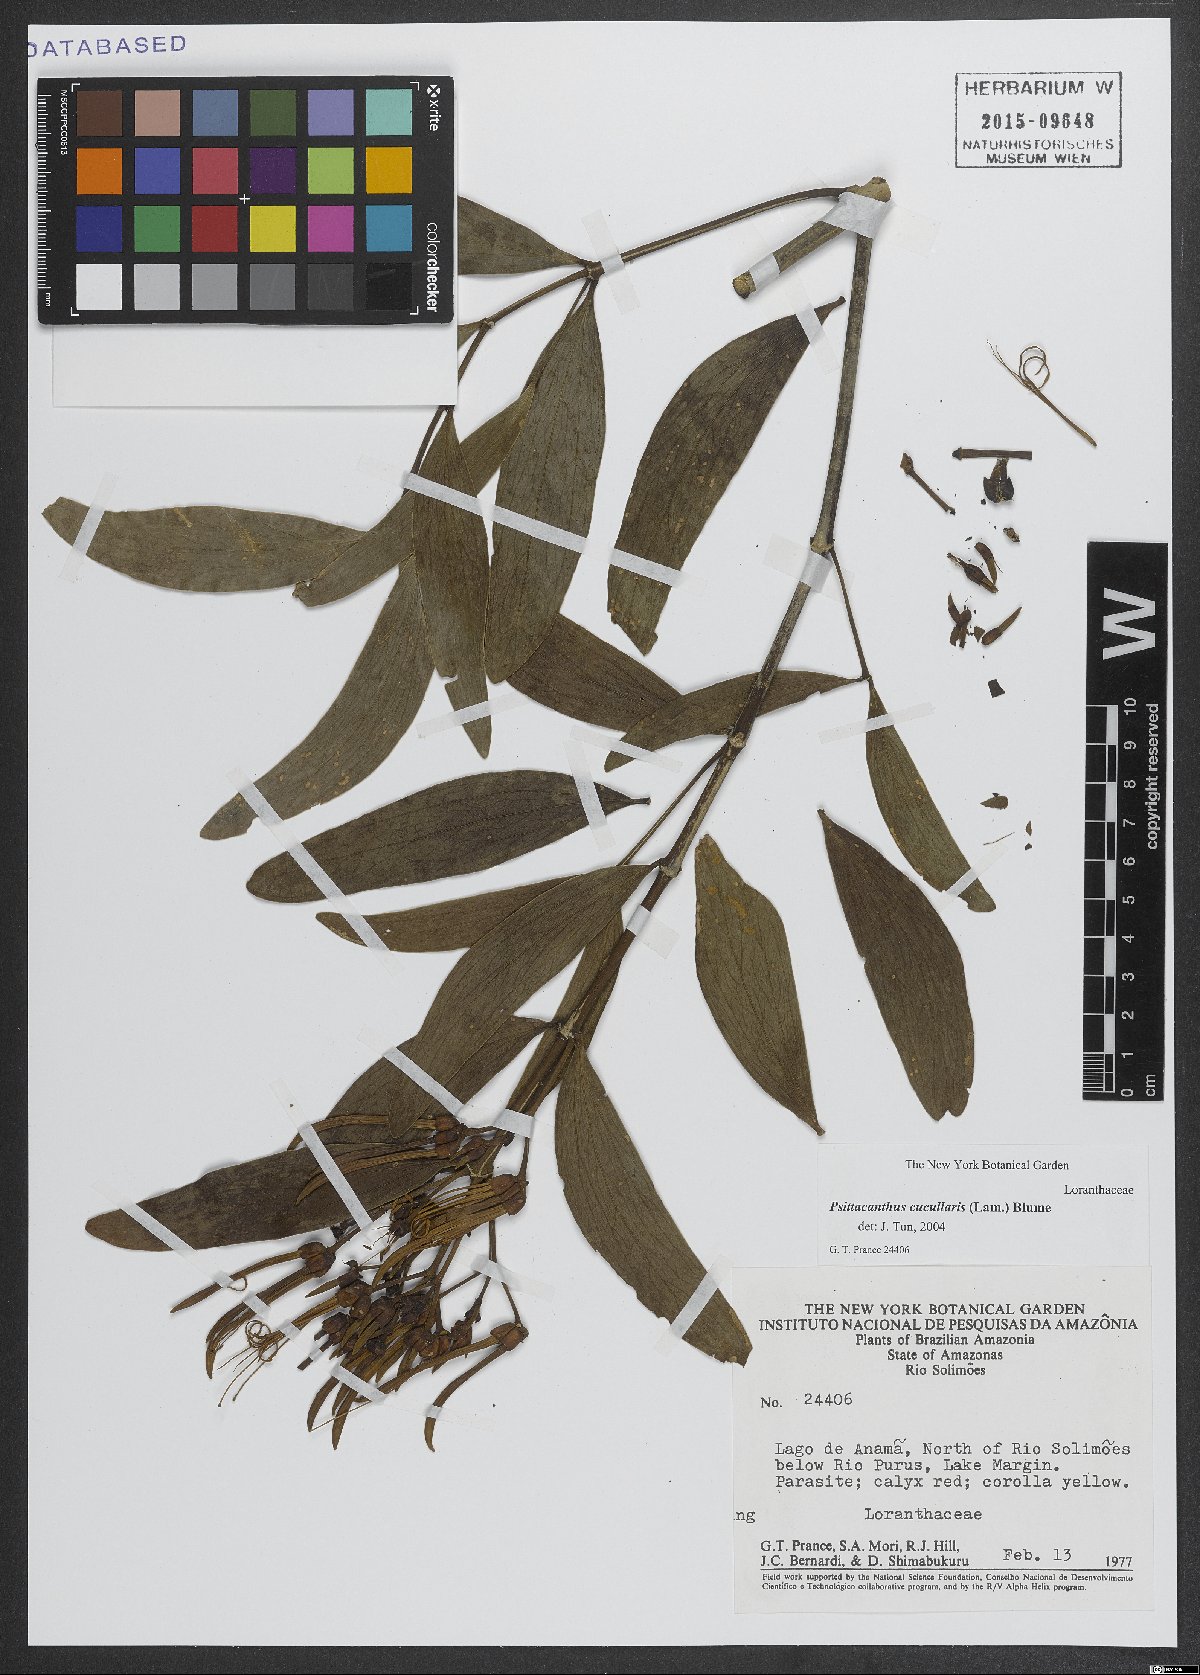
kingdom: Plantae
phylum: Tracheophyta
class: Magnoliopsida
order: Santalales
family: Loranthaceae
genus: Psittacanthus
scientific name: Psittacanthus cucullaris
